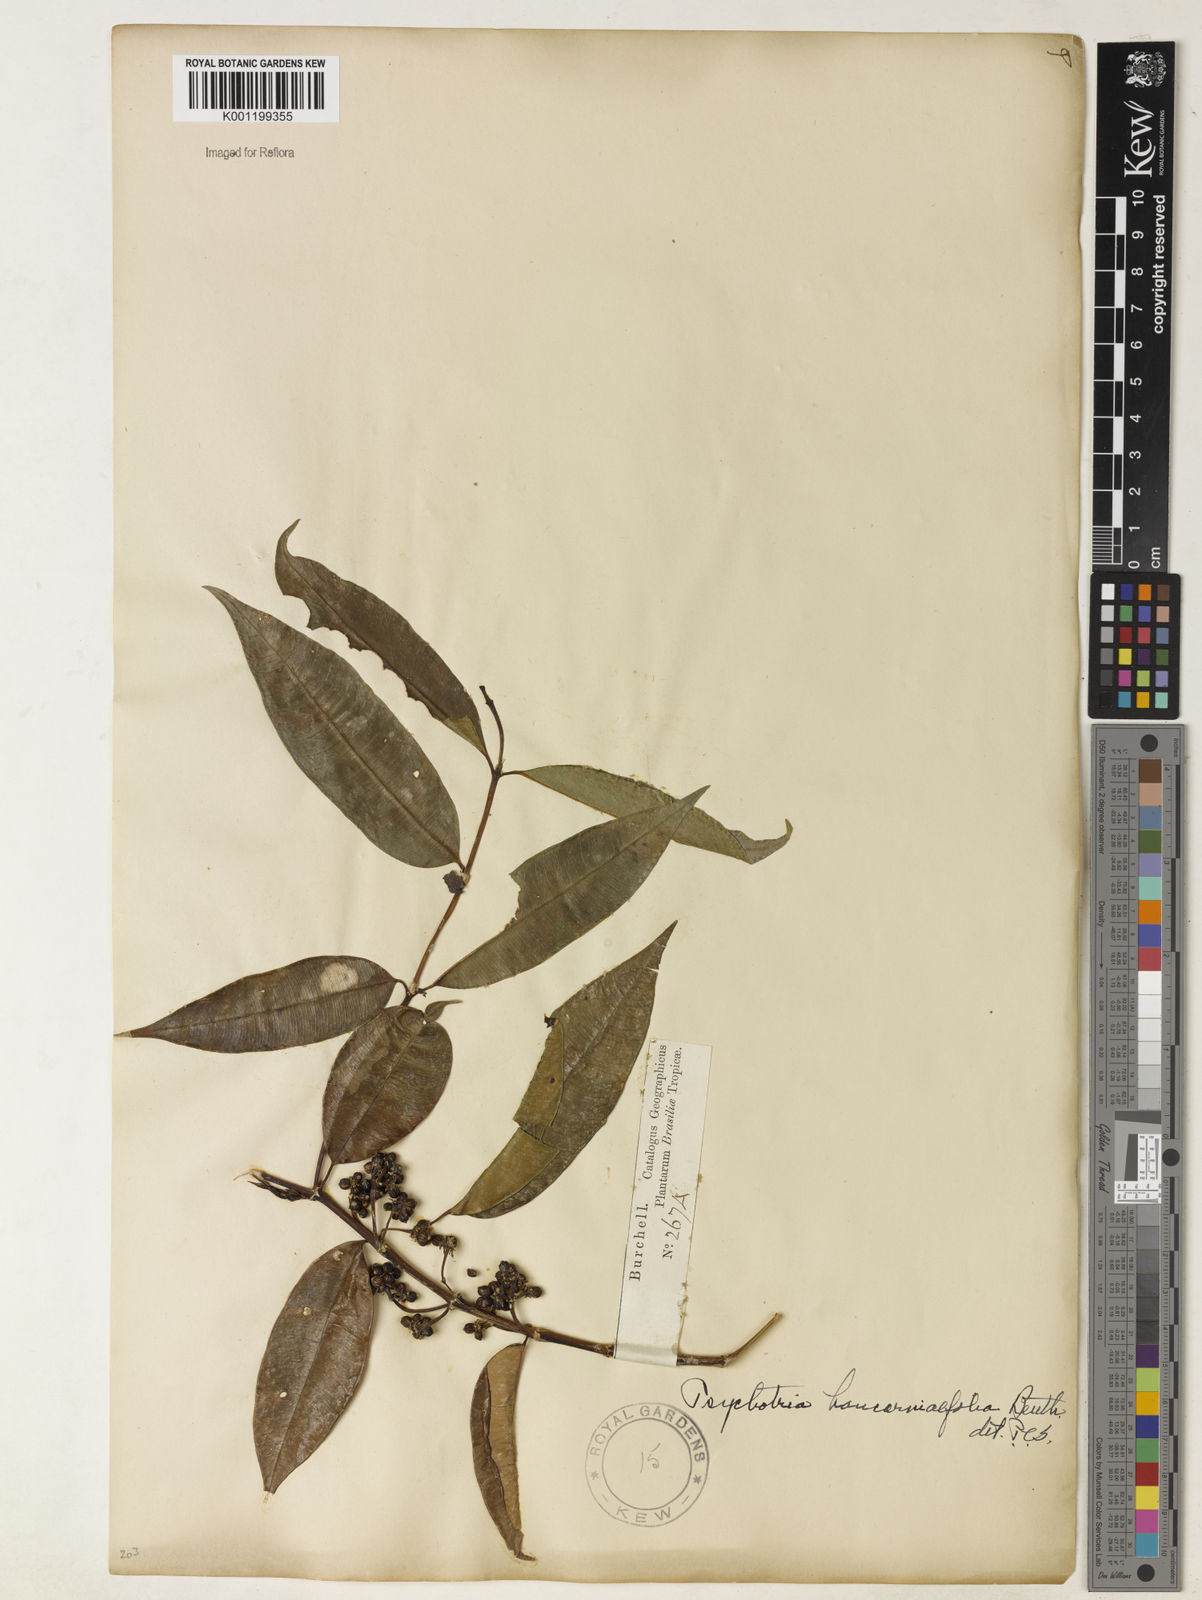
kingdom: Plantae
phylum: Tracheophyta
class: Magnoliopsida
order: Gentianales
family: Rubiaceae
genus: Rudgea
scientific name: Rudgea sessilis
